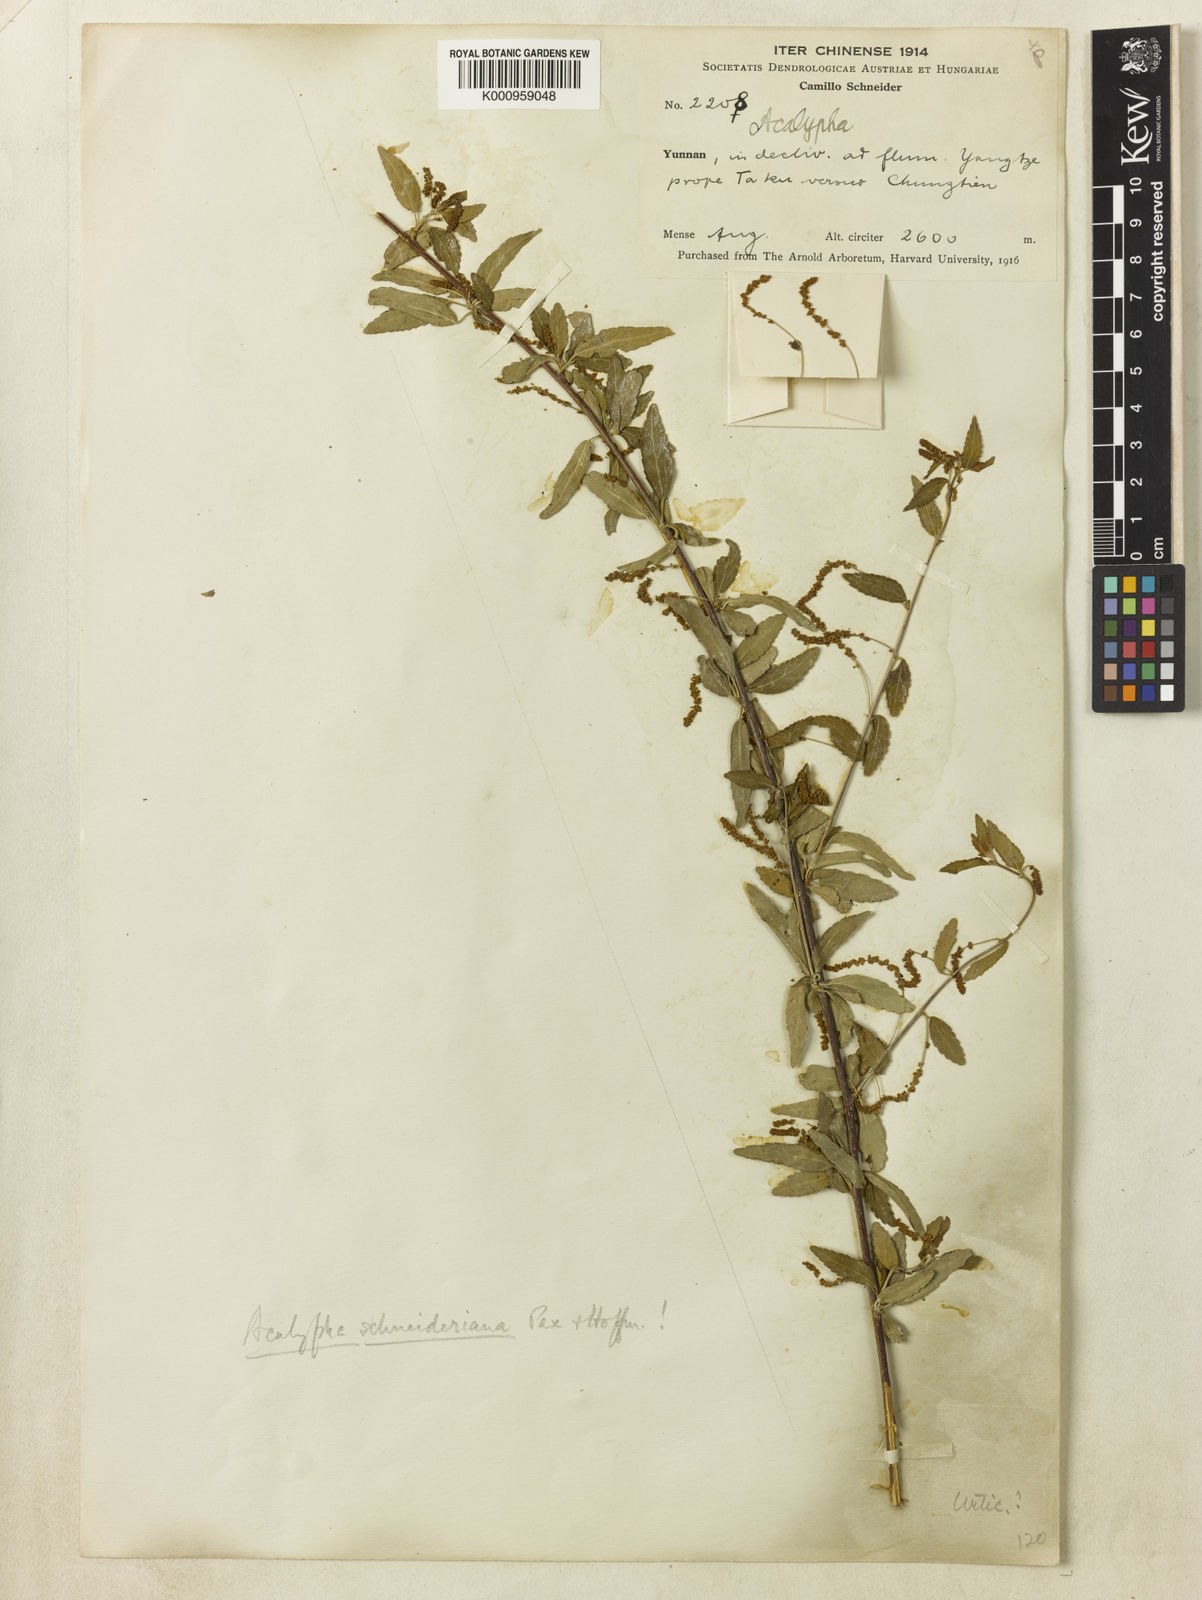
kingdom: Plantae
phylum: Tracheophyta
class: Magnoliopsida
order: Malpighiales
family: Euphorbiaceae
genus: Acalypha
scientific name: Acalypha schneideriana
